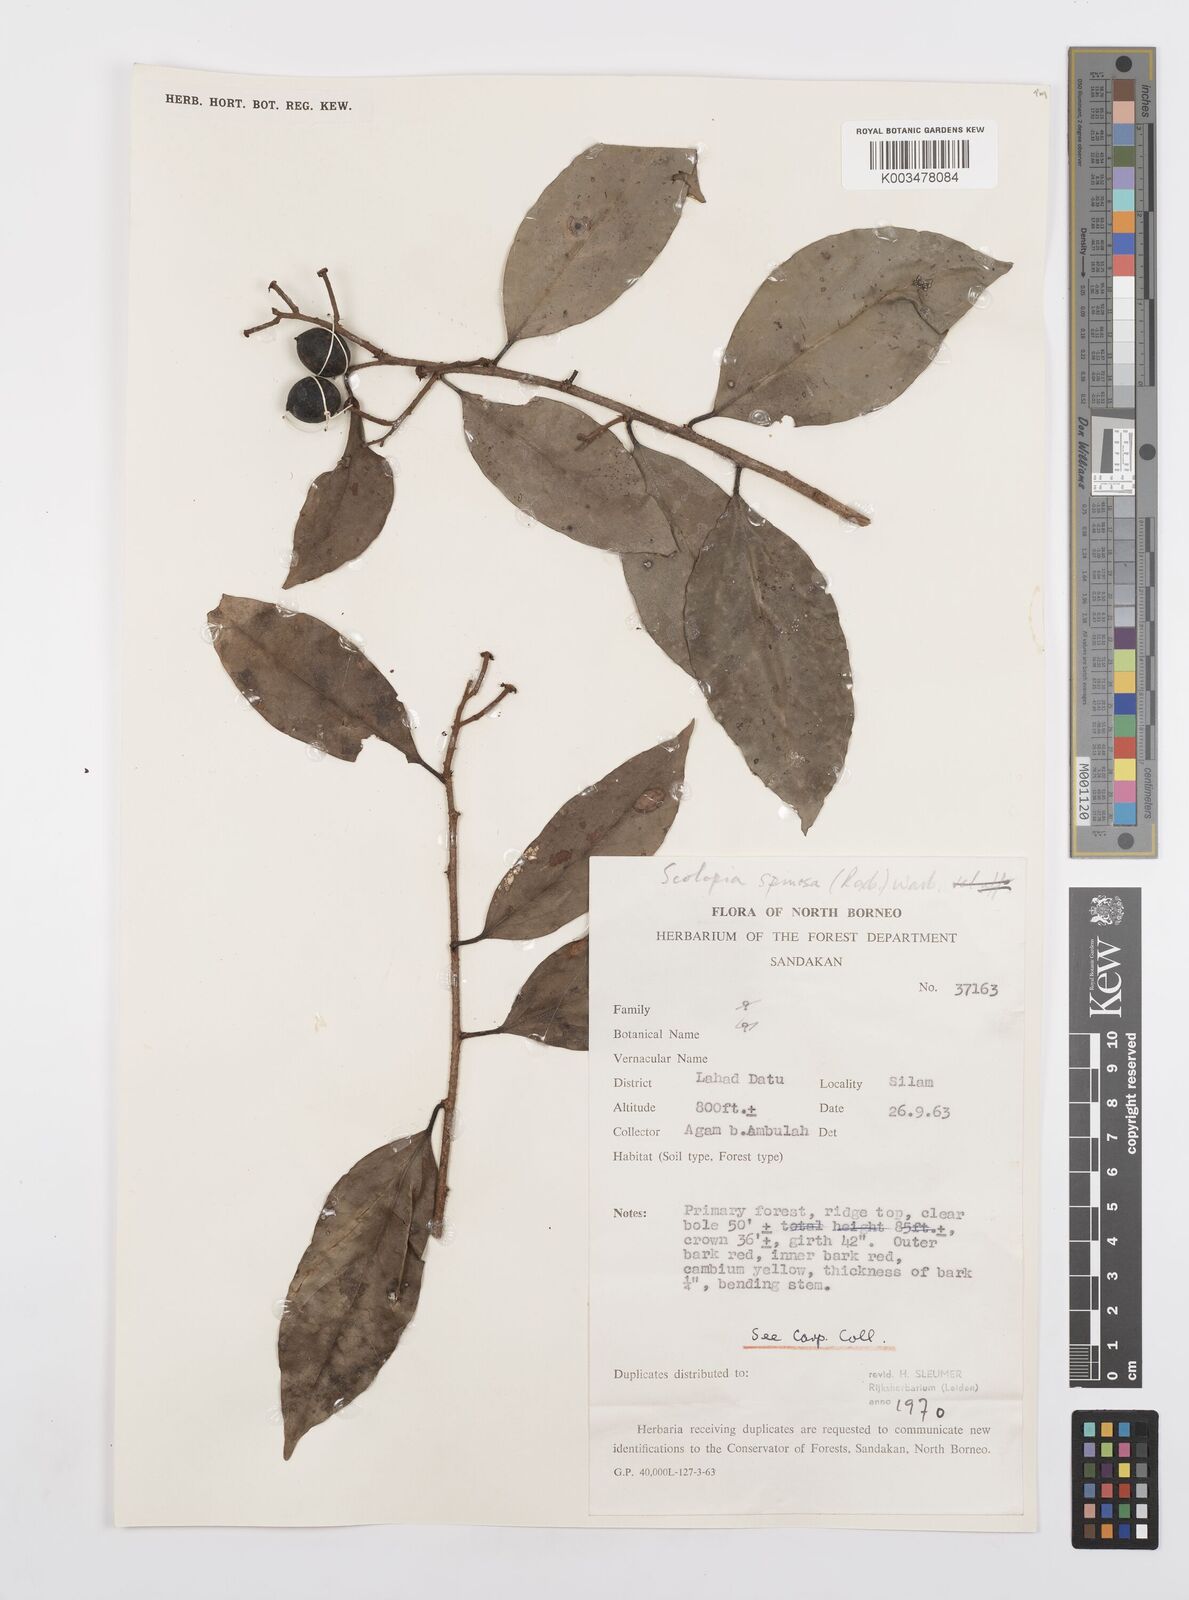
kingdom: Plantae
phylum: Tracheophyta
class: Magnoliopsida
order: Malpighiales
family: Salicaceae
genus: Scolopia
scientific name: Scolopia spinosa
